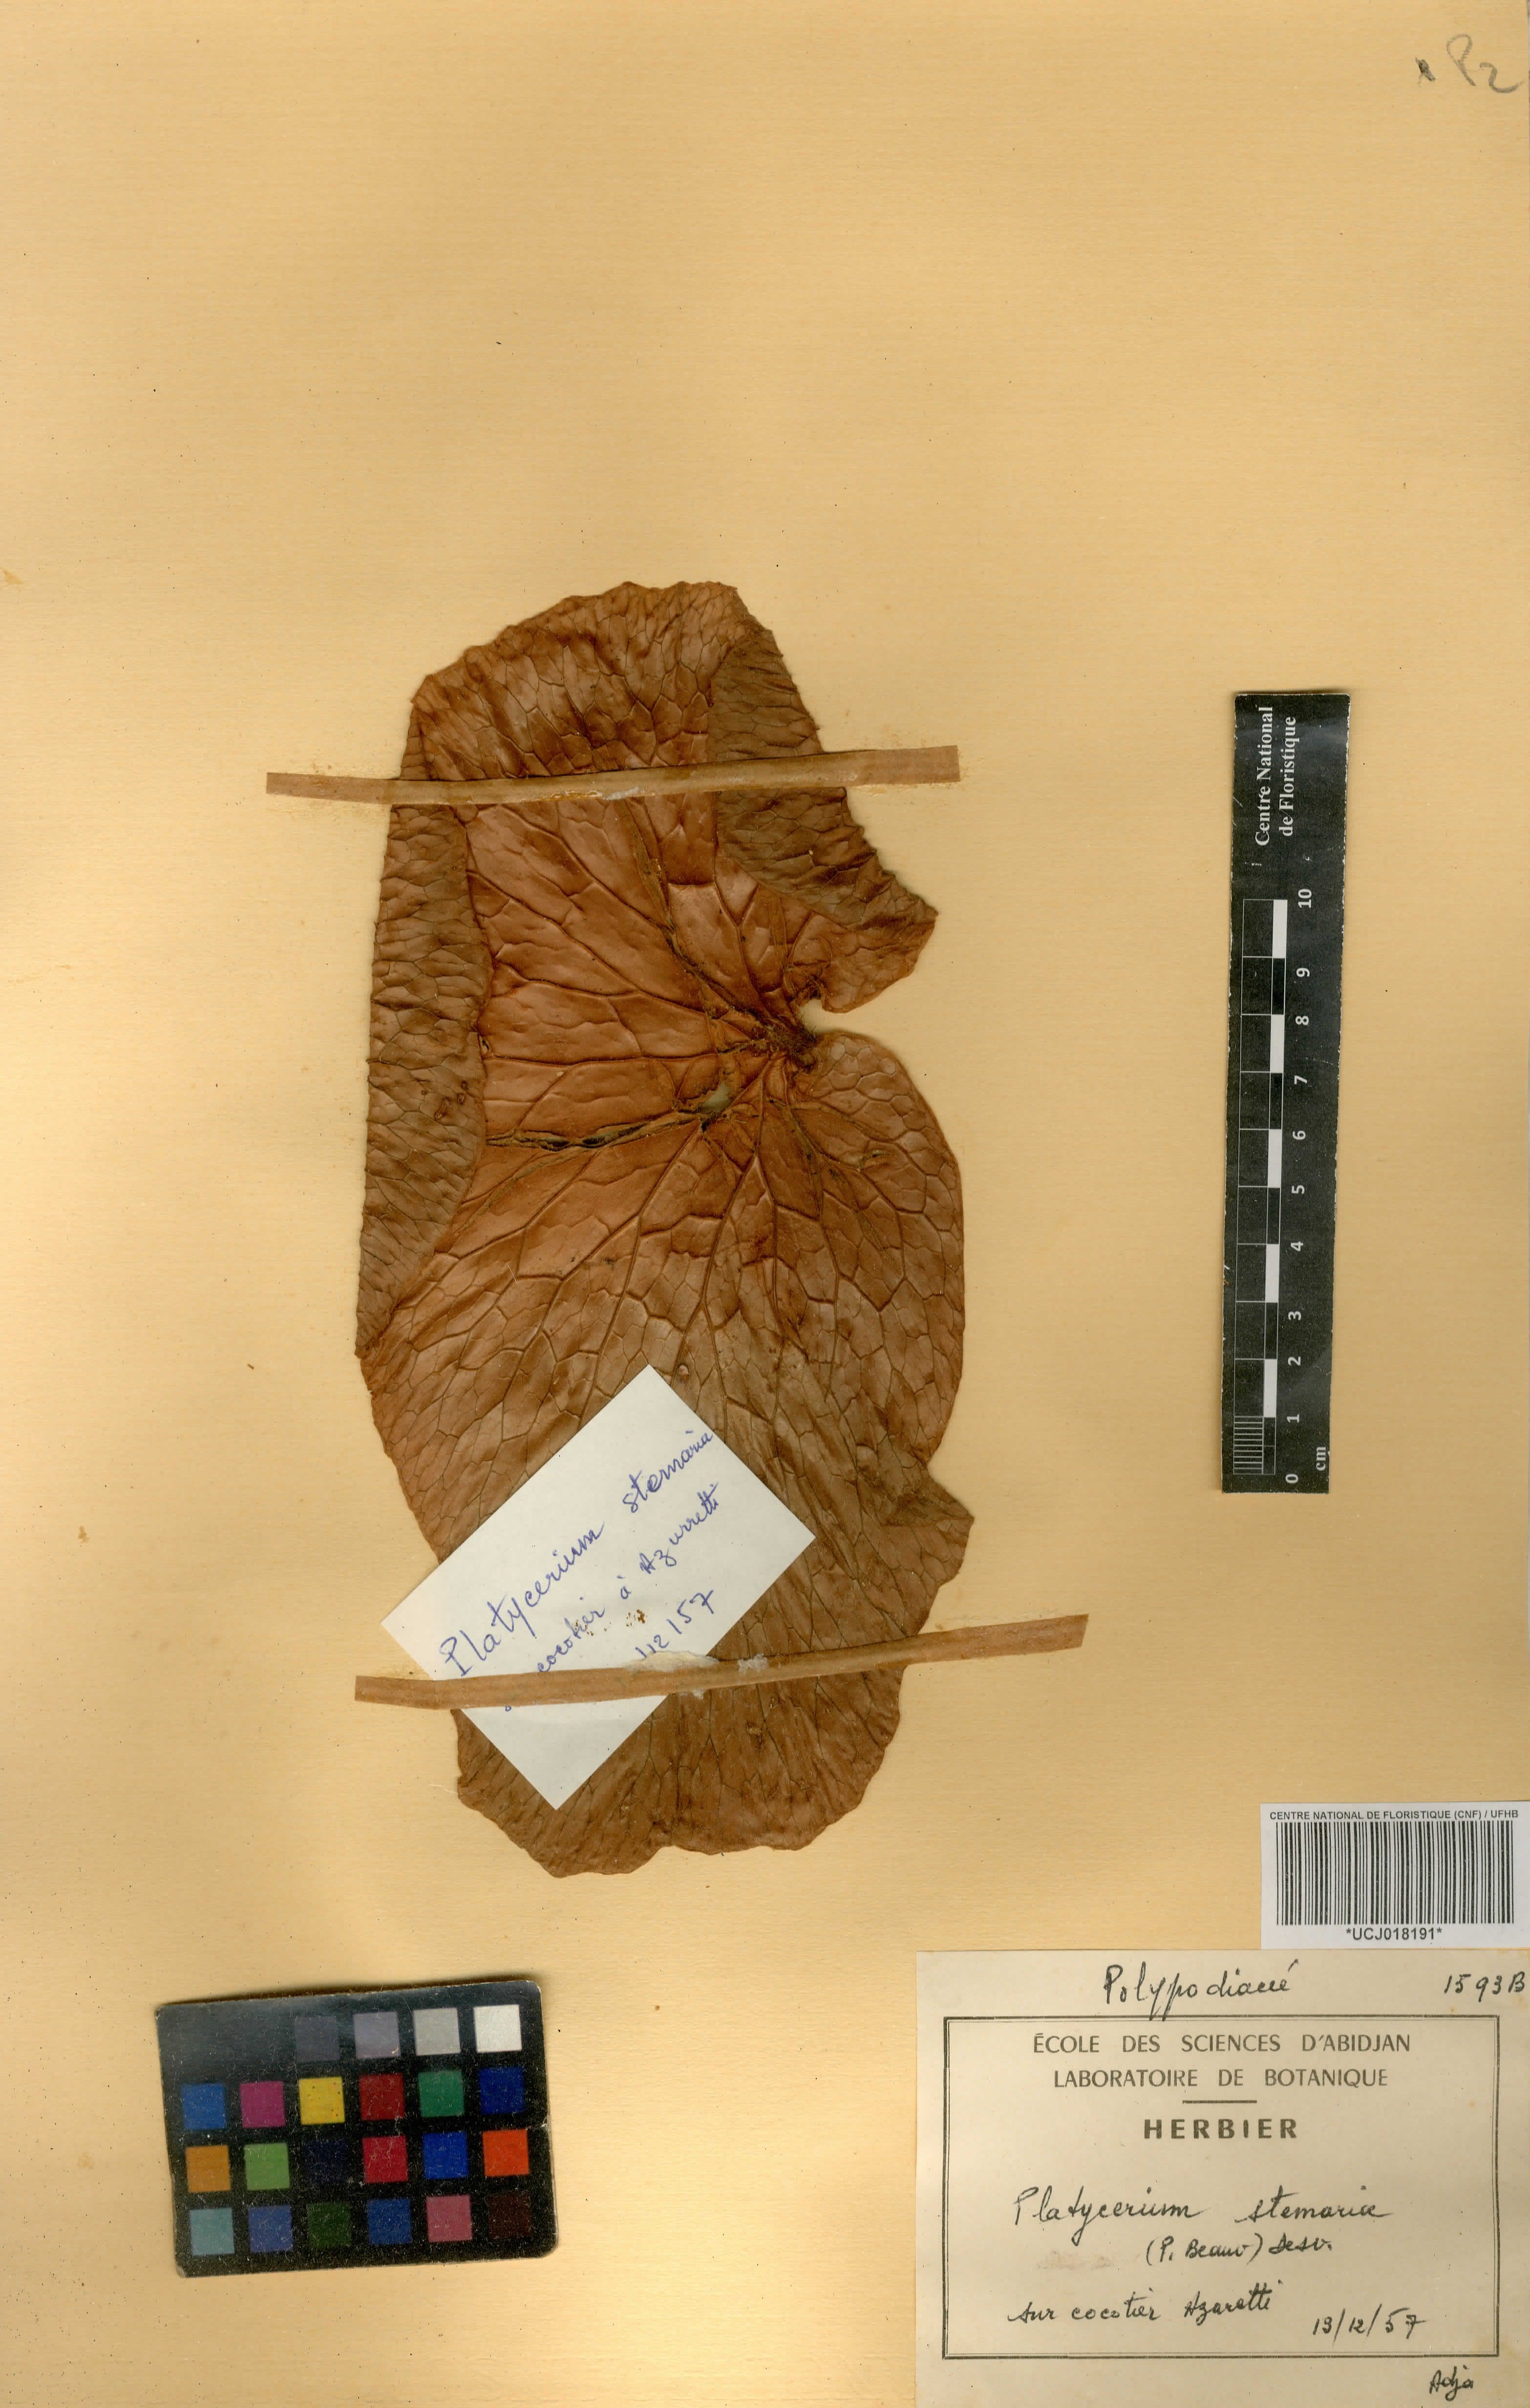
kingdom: Plantae
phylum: Tracheophyta
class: Polypodiopsida
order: Polypodiales
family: Polypodiaceae
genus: Platycerium
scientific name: Platycerium stemaria
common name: Triangular staghorn fern
